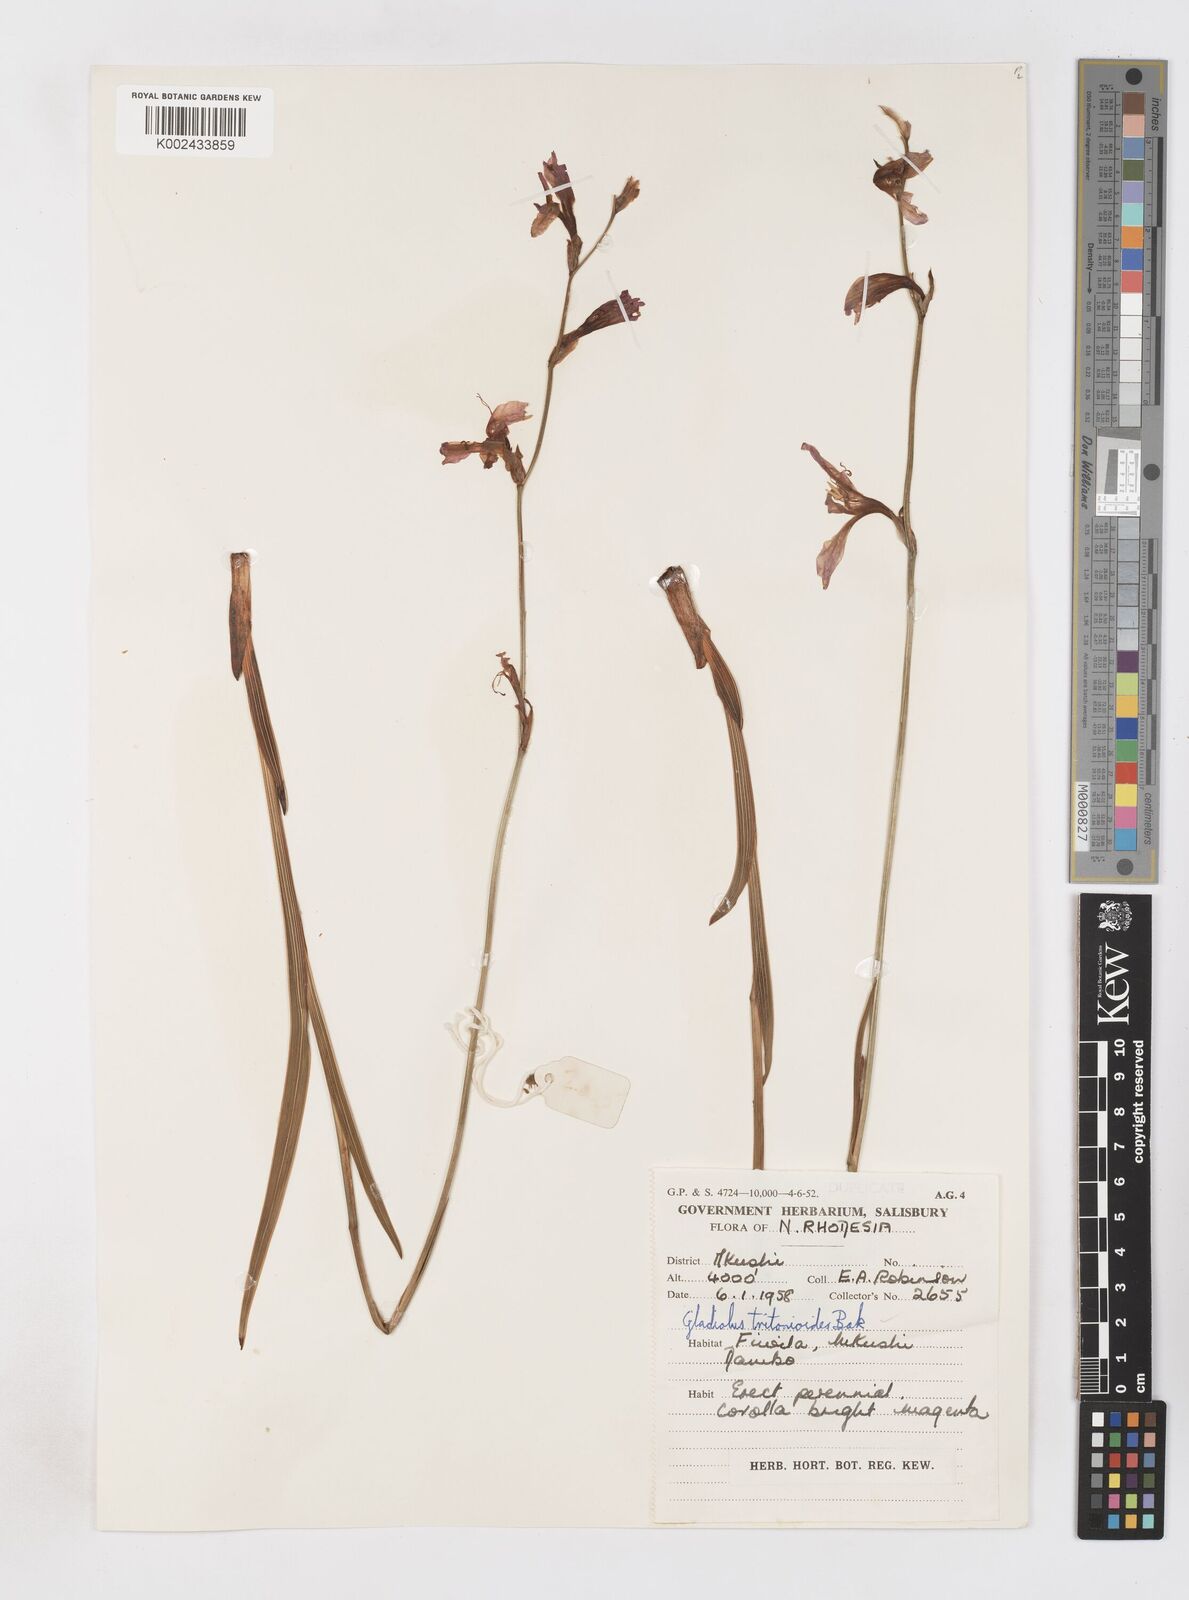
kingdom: Plantae
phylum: Tracheophyta
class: Liliopsida
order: Asparagales
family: Iridaceae
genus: Gladiolus
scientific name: Gladiolus laxiflorus
